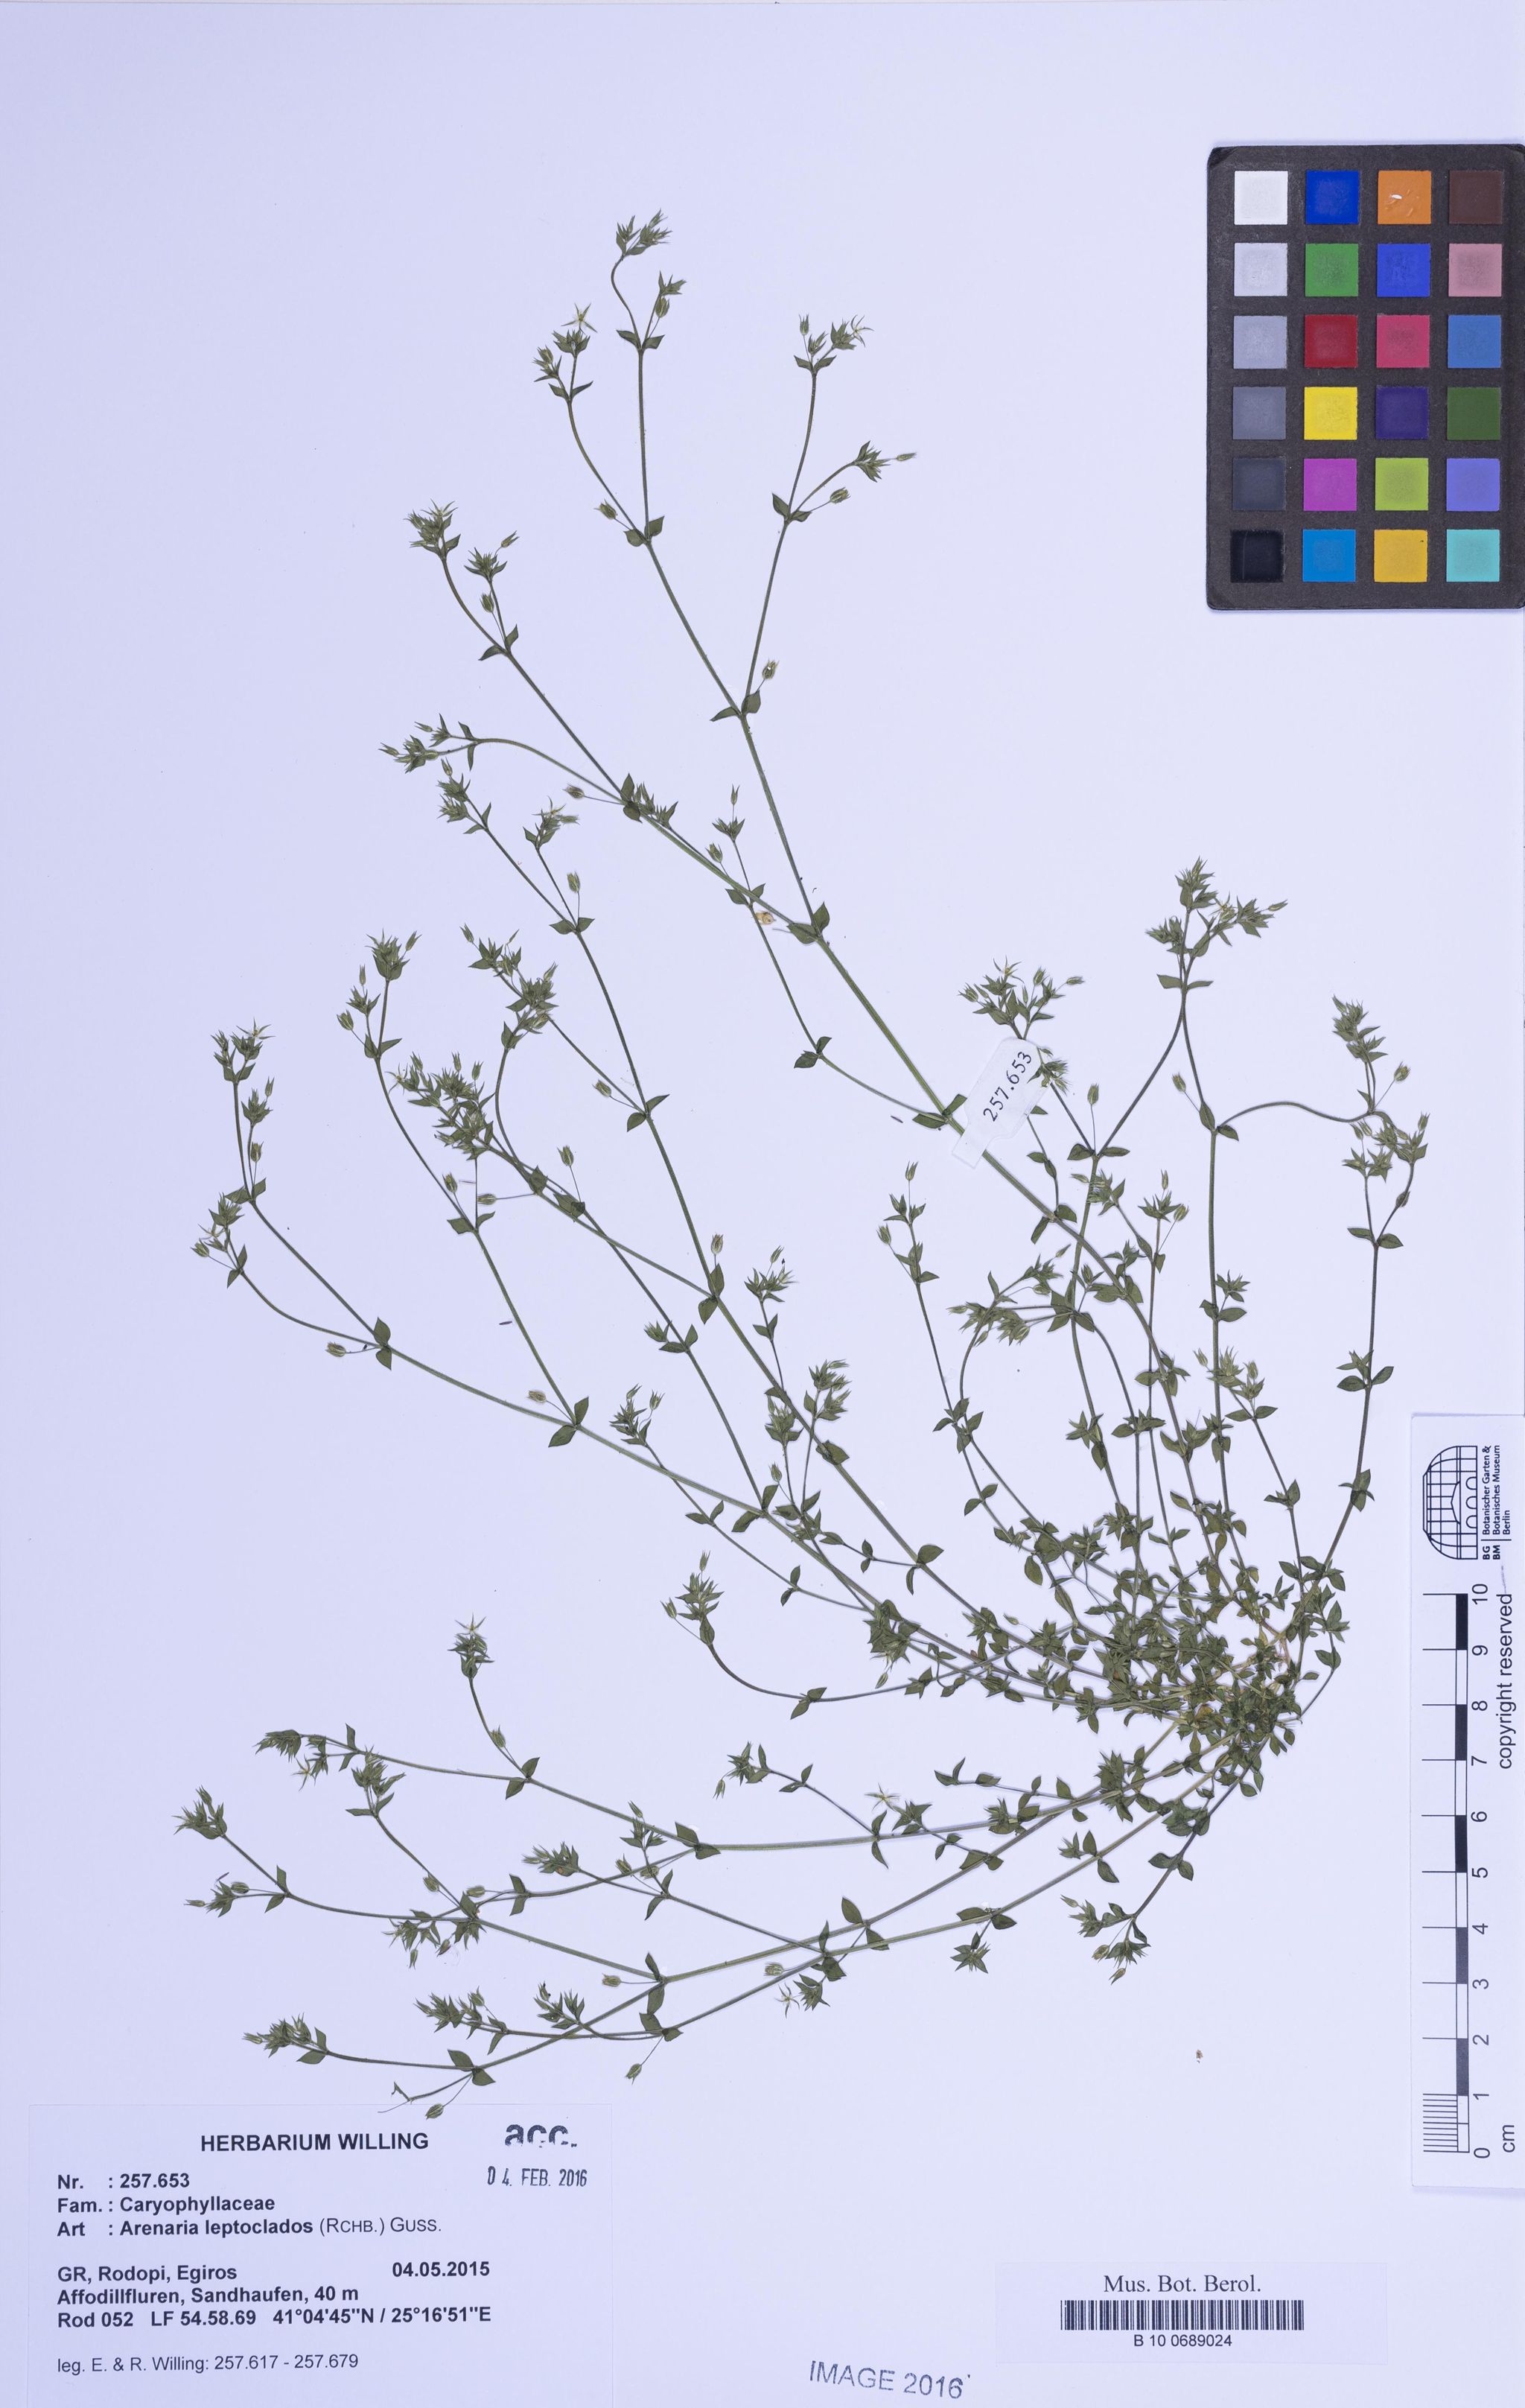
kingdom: Plantae
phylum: Tracheophyta
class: Magnoliopsida
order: Caryophyllales
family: Caryophyllaceae
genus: Arenaria
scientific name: Arenaria leptoclados
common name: Thyme-leaved sandwort
